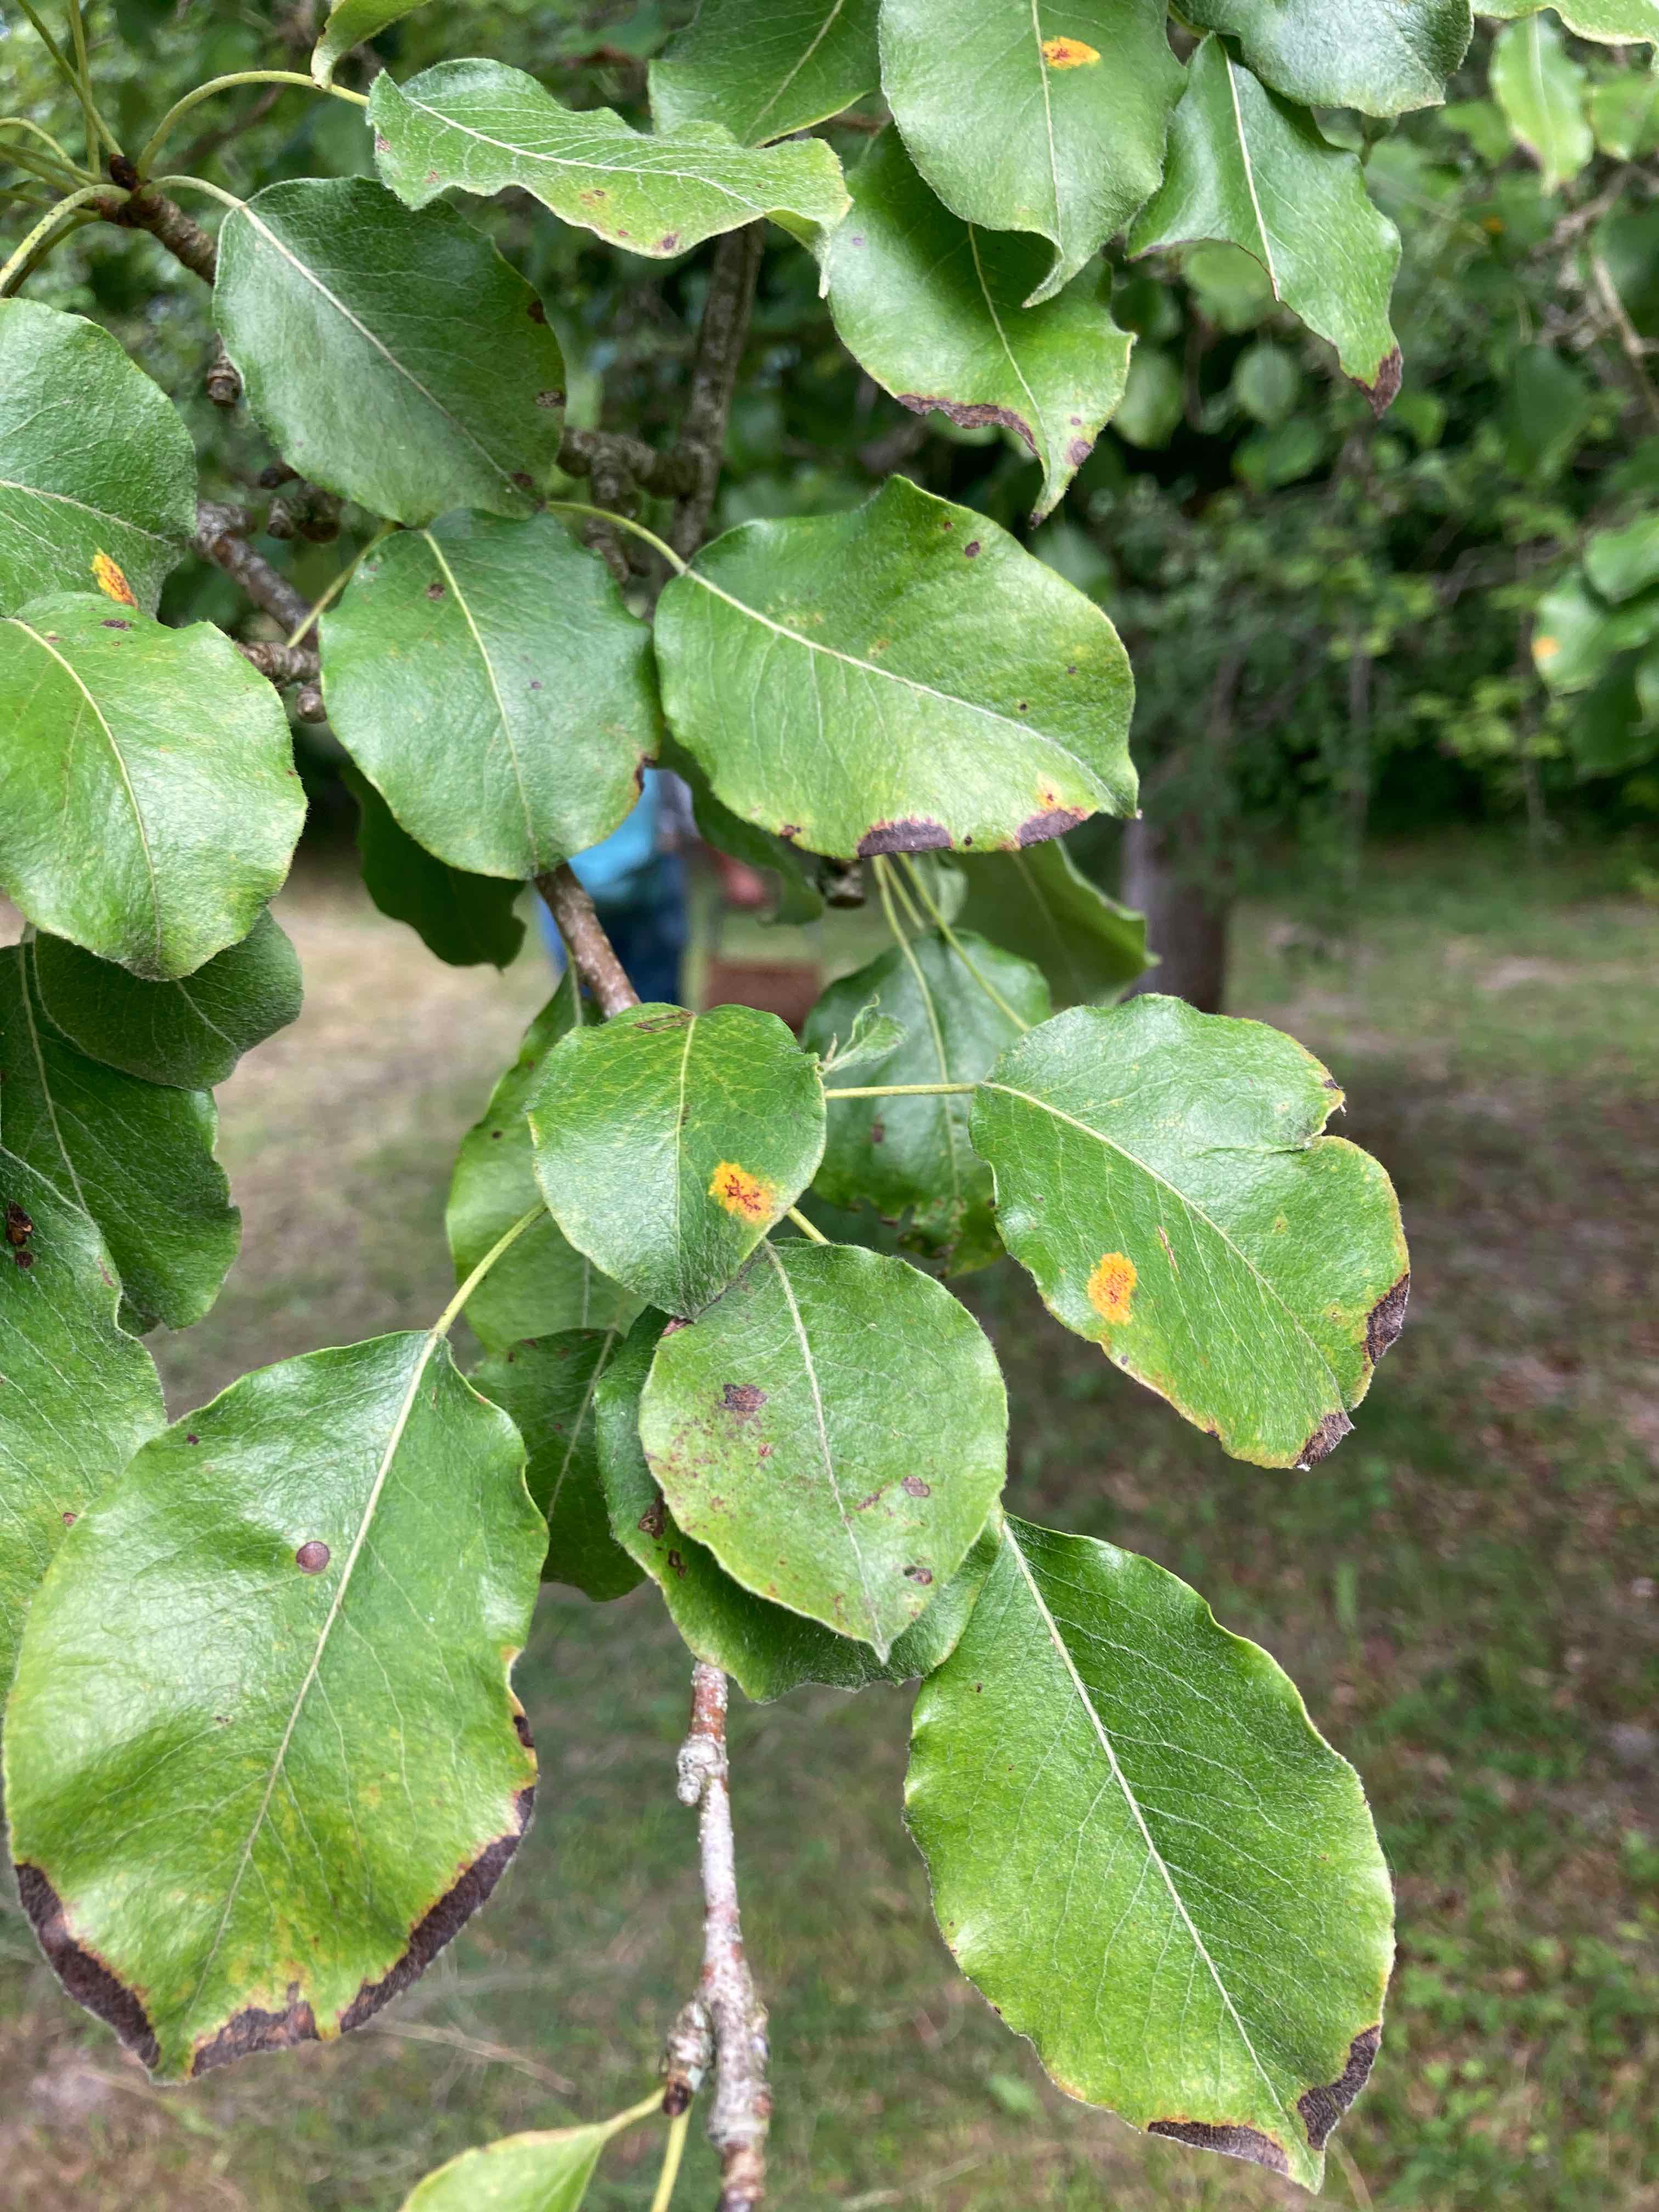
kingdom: Fungi
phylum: Basidiomycota
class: Pucciniomycetes
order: Pucciniales
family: Gymnosporangiaceae
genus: Gymnosporangium
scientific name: Gymnosporangium sabinae
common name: pæregitter-bævrerust
